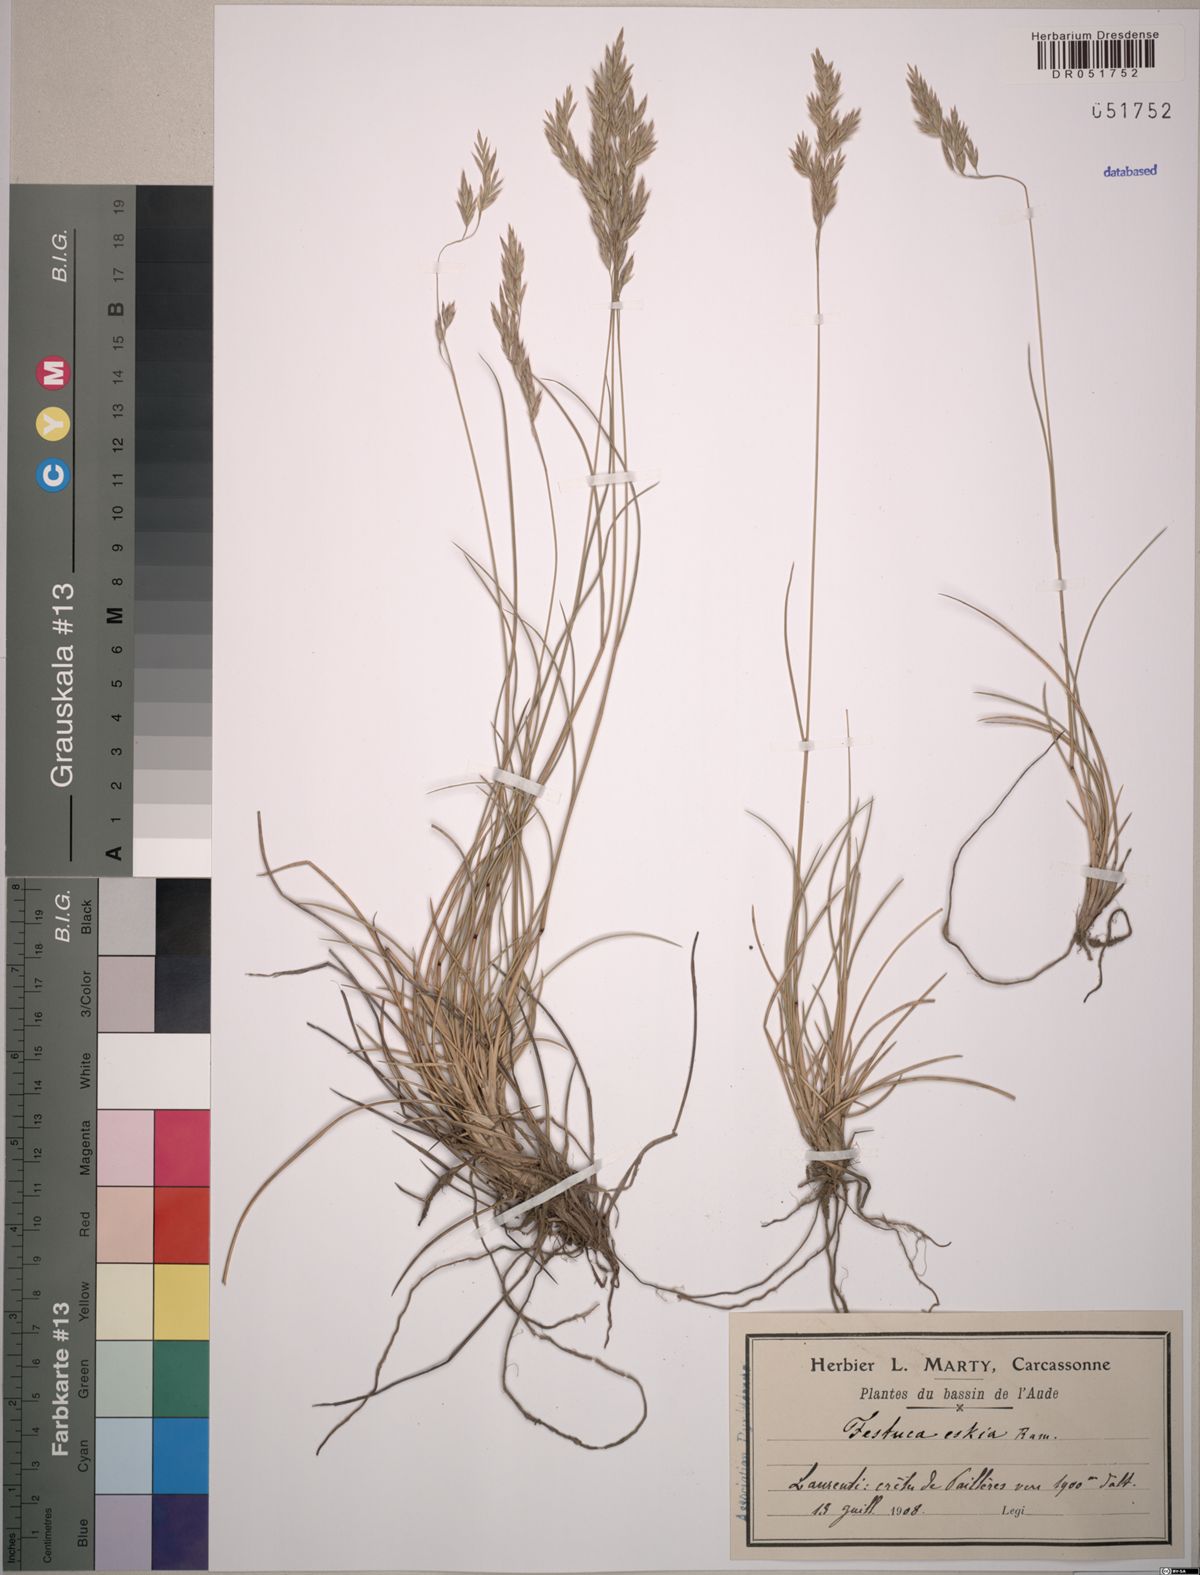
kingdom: Plantae
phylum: Tracheophyta
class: Liliopsida
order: Poales
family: Poaceae
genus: Festuca
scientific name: Festuca eskia
